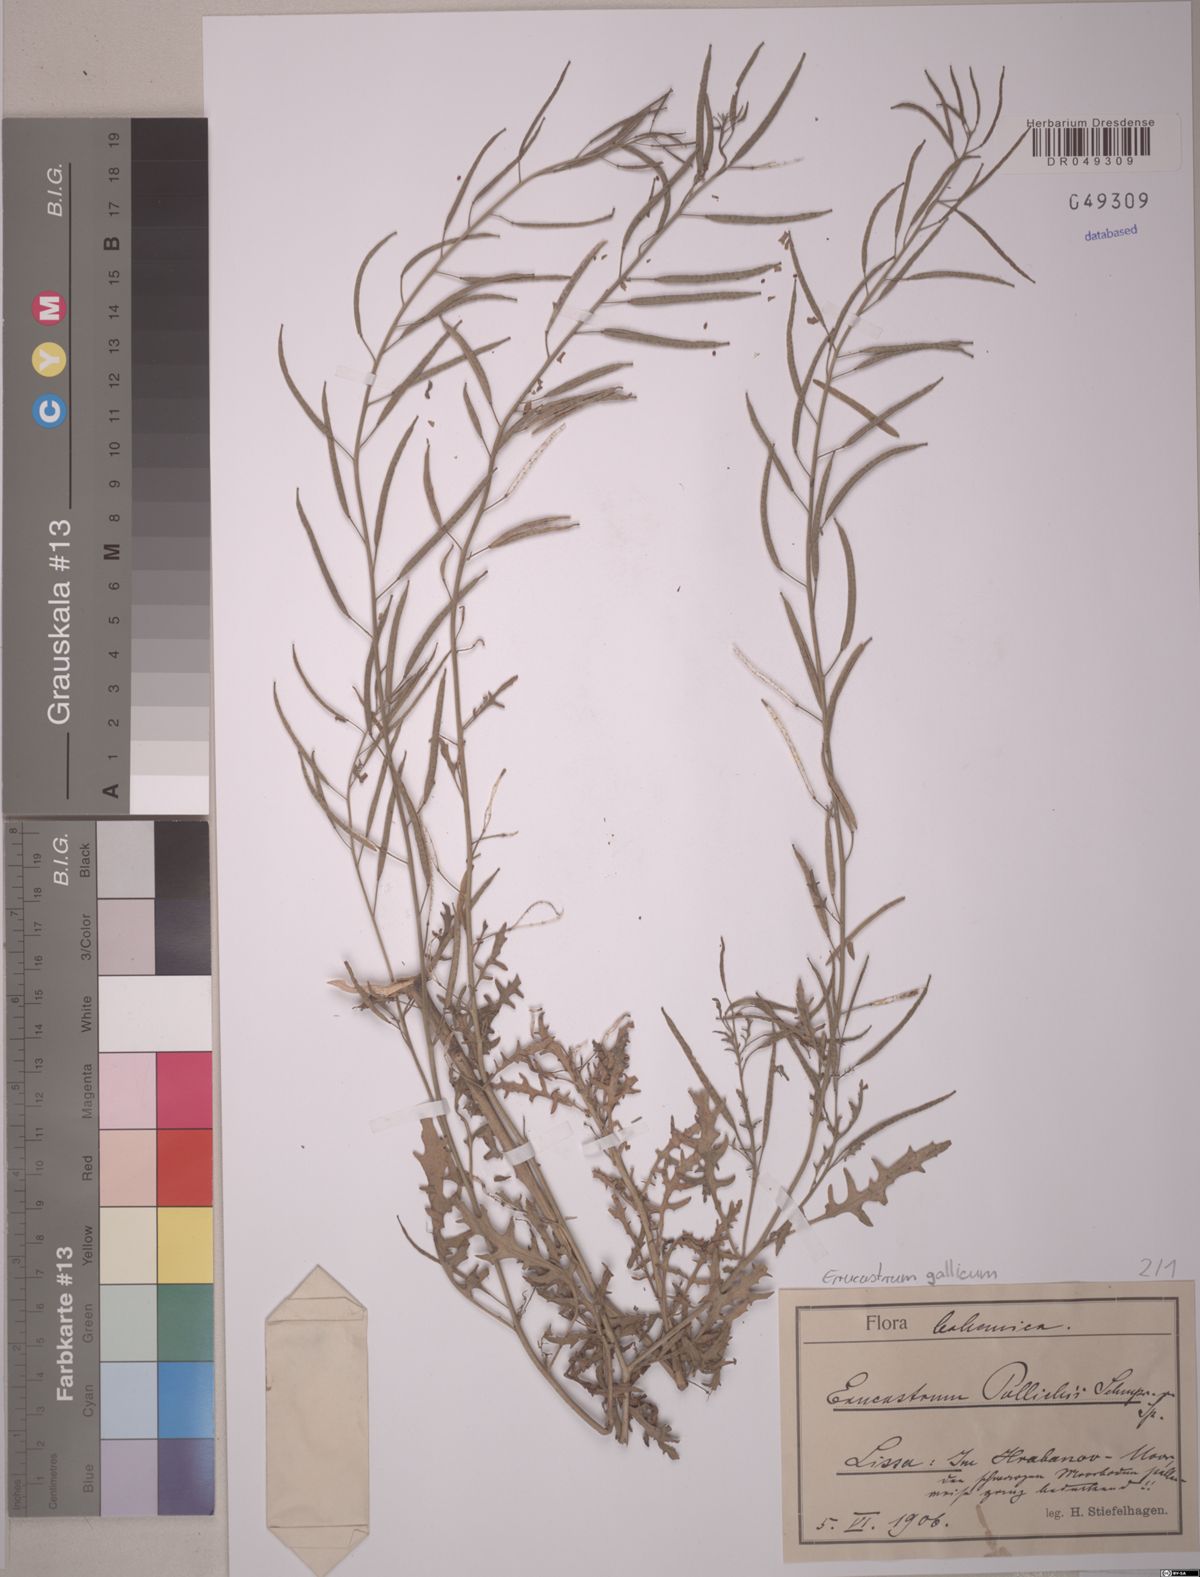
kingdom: Plantae
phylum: Tracheophyta
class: Magnoliopsida
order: Brassicales
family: Brassicaceae
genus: Erucastrum
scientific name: Erucastrum gallicum
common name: Hairy rocket
